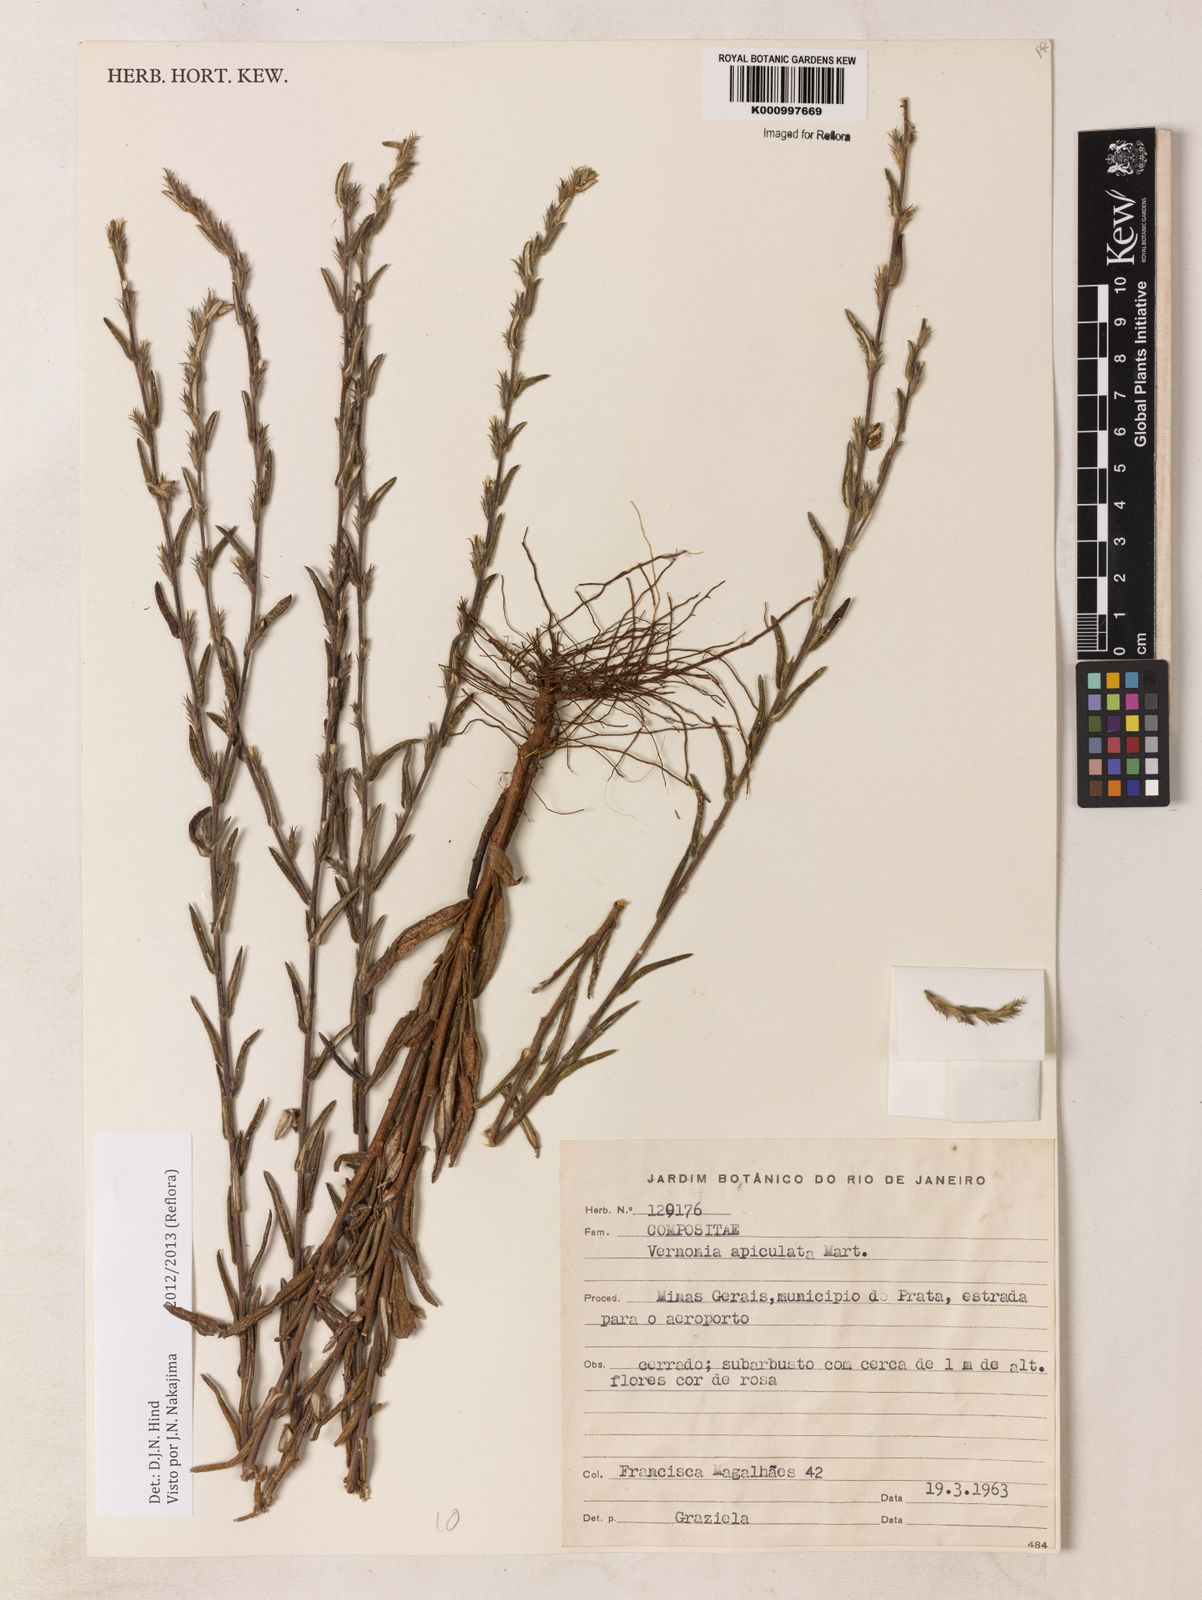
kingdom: Plantae
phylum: Tracheophyta
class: Magnoliopsida
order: Asterales
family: Asteraceae
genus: Stenocephalum
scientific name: Stenocephalum apiculatum
